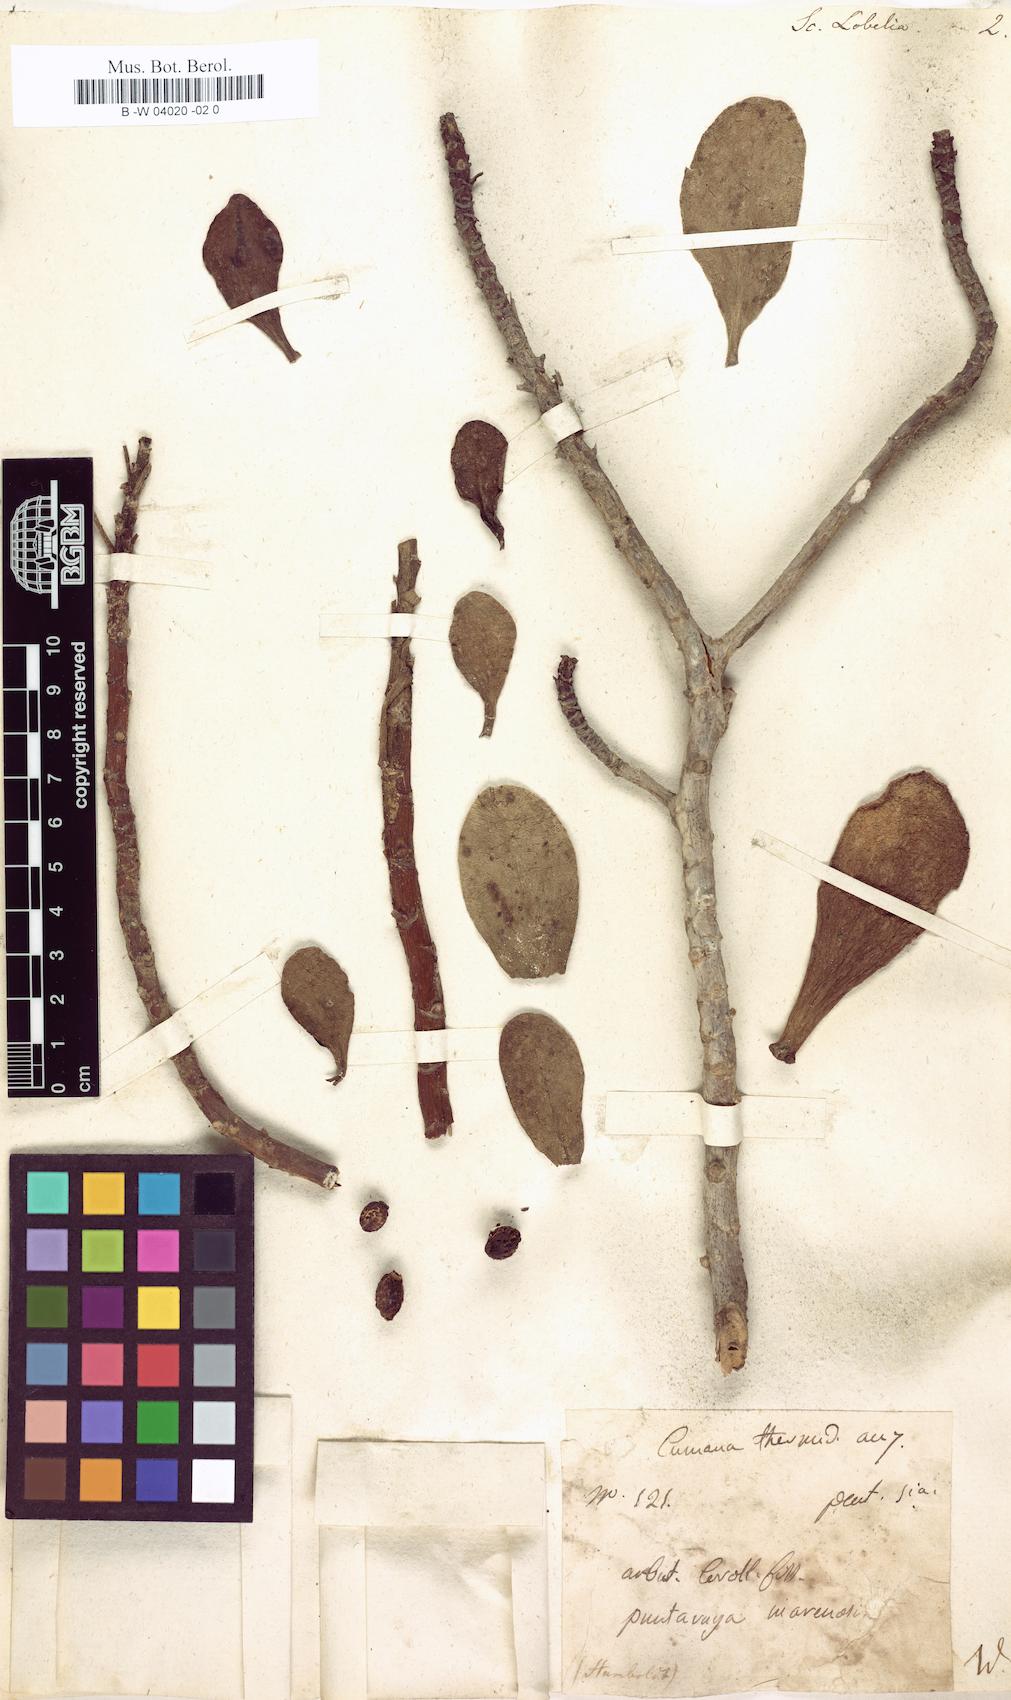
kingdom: Plantae
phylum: Tracheophyta
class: Magnoliopsida
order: Asterales
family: Goodeniaceae
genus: Scaevola
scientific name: Scaevola
